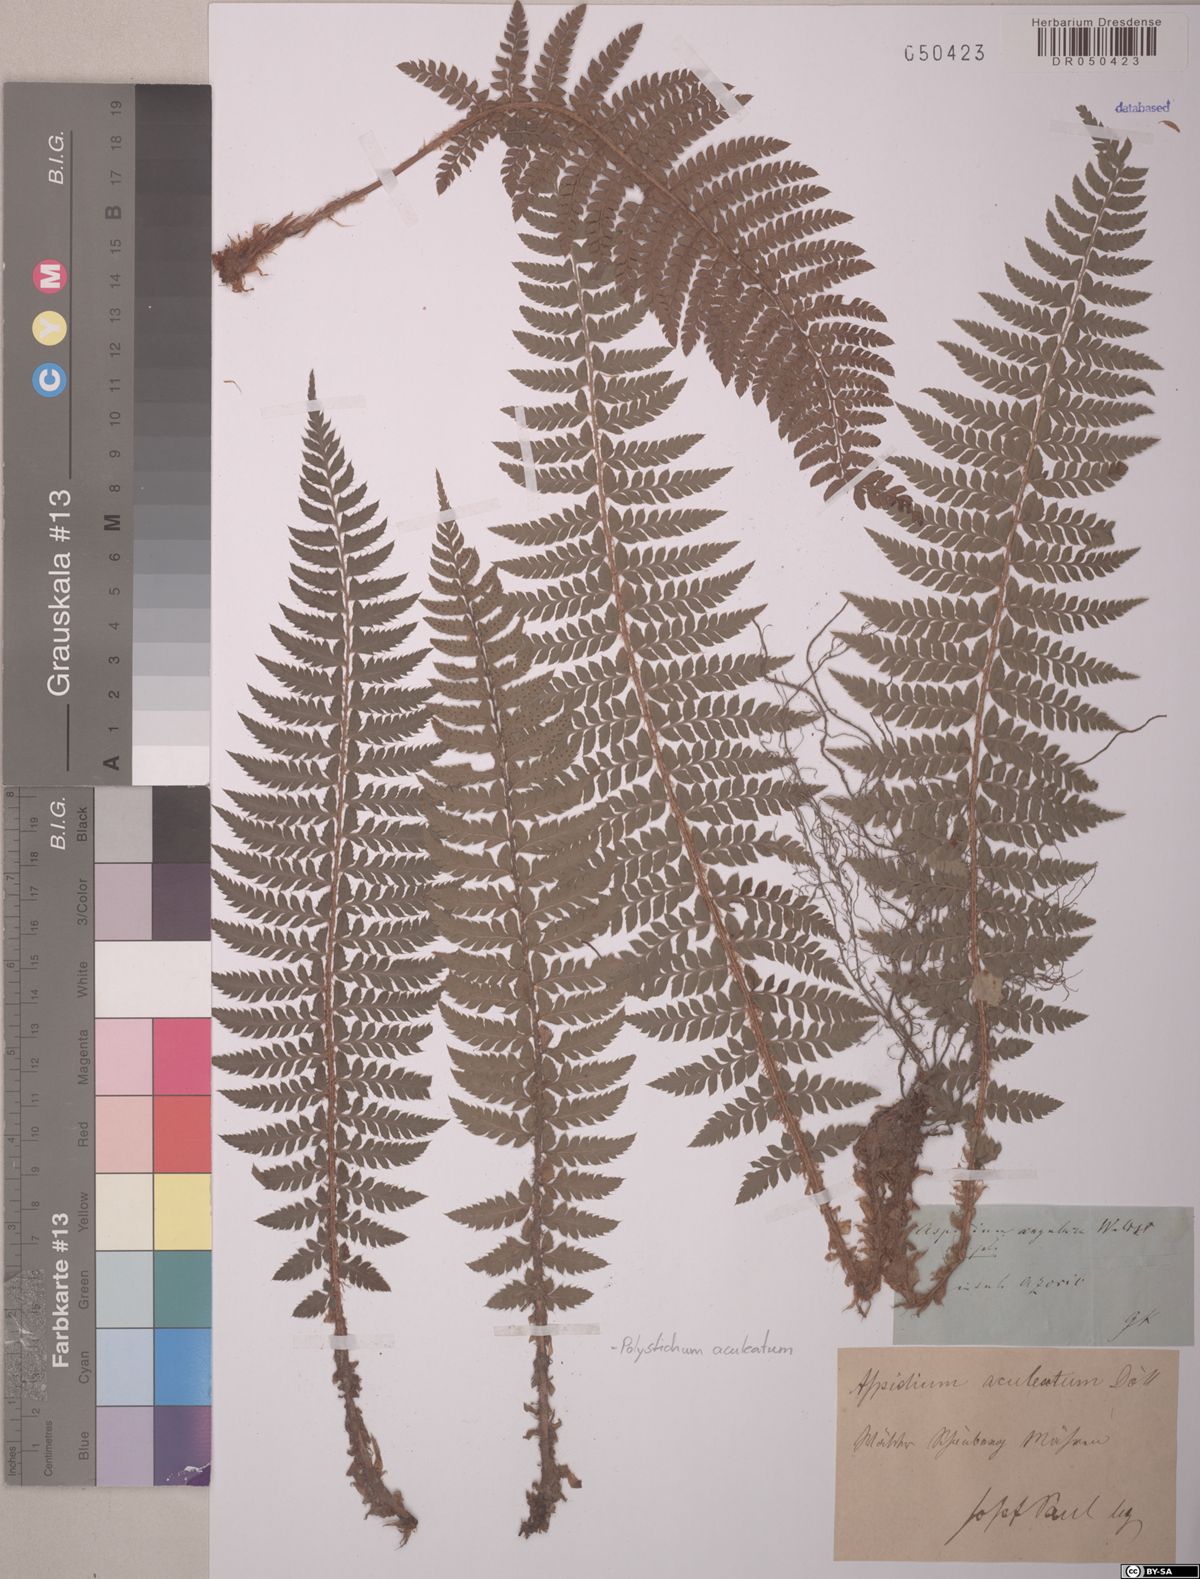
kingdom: Plantae
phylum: Tracheophyta
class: Polypodiopsida
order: Polypodiales
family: Dryopteridaceae
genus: Polystichum
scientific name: Polystichum aculeatum
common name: Hard shield-fern
